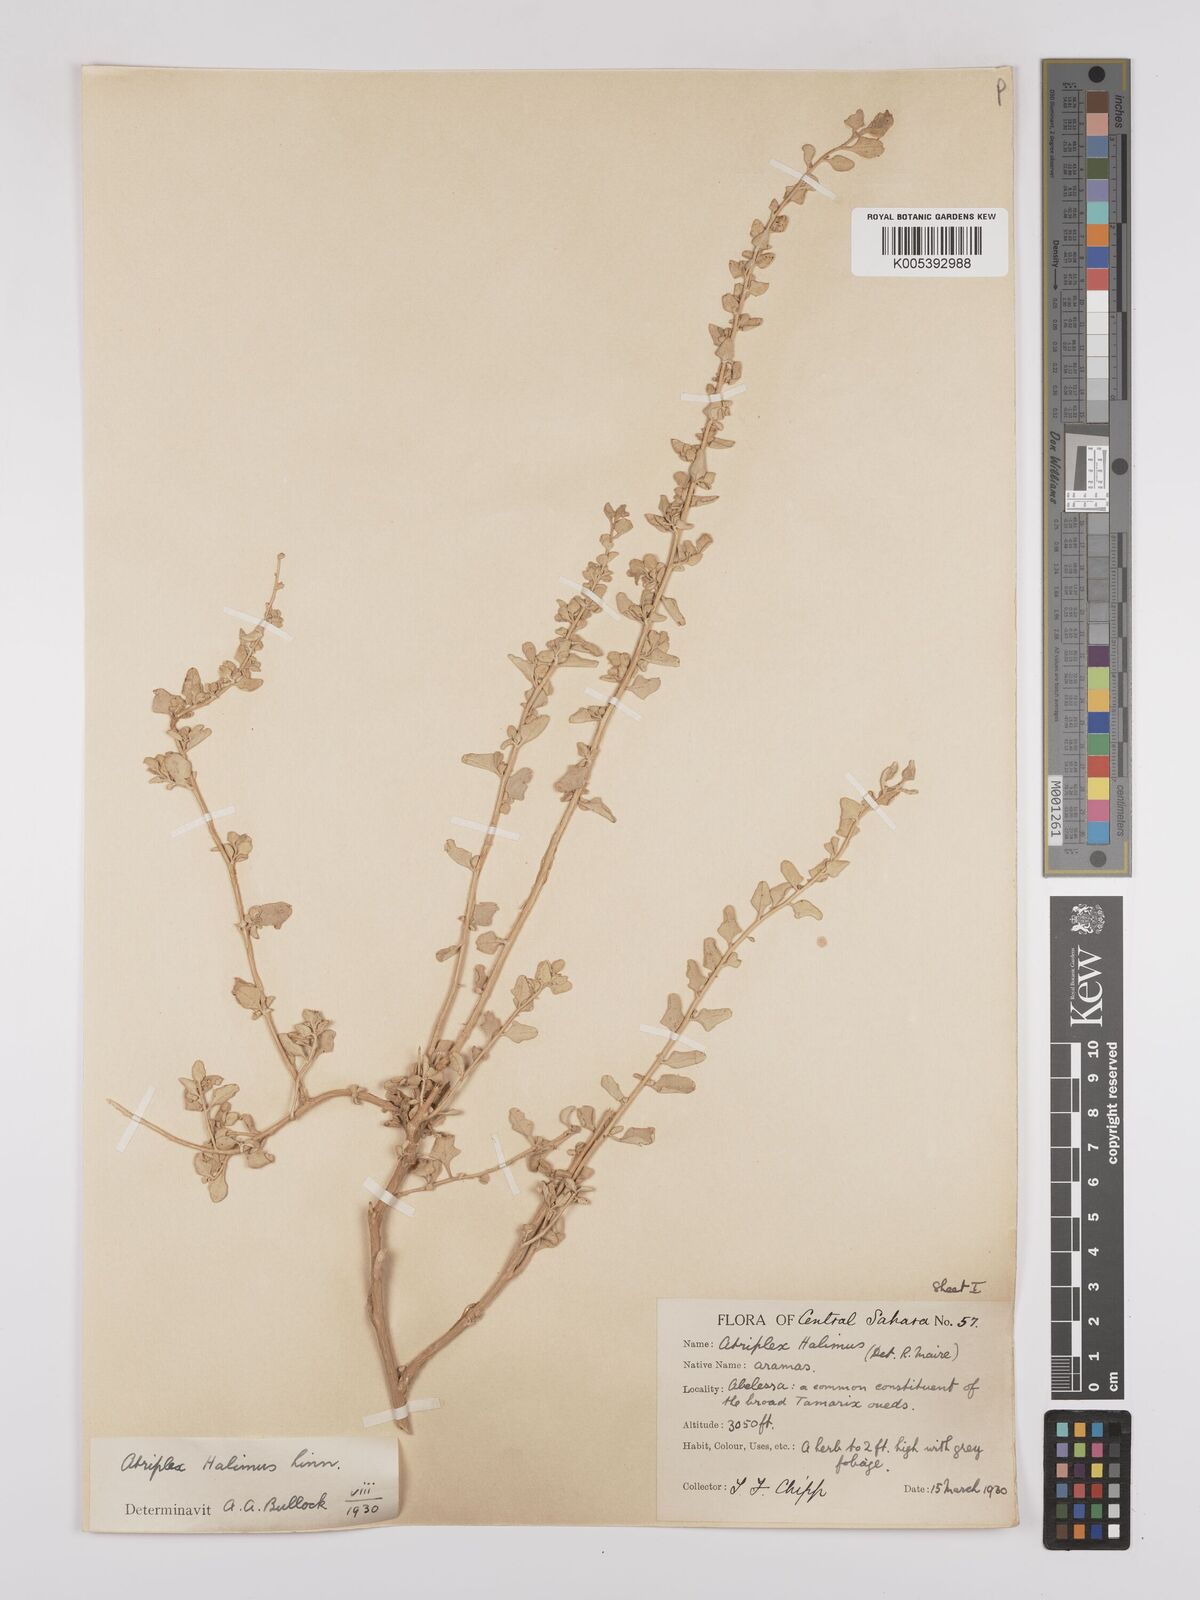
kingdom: Plantae
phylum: Tracheophyta
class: Magnoliopsida
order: Caryophyllales
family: Amaranthaceae
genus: Atriplex
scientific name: Atriplex
